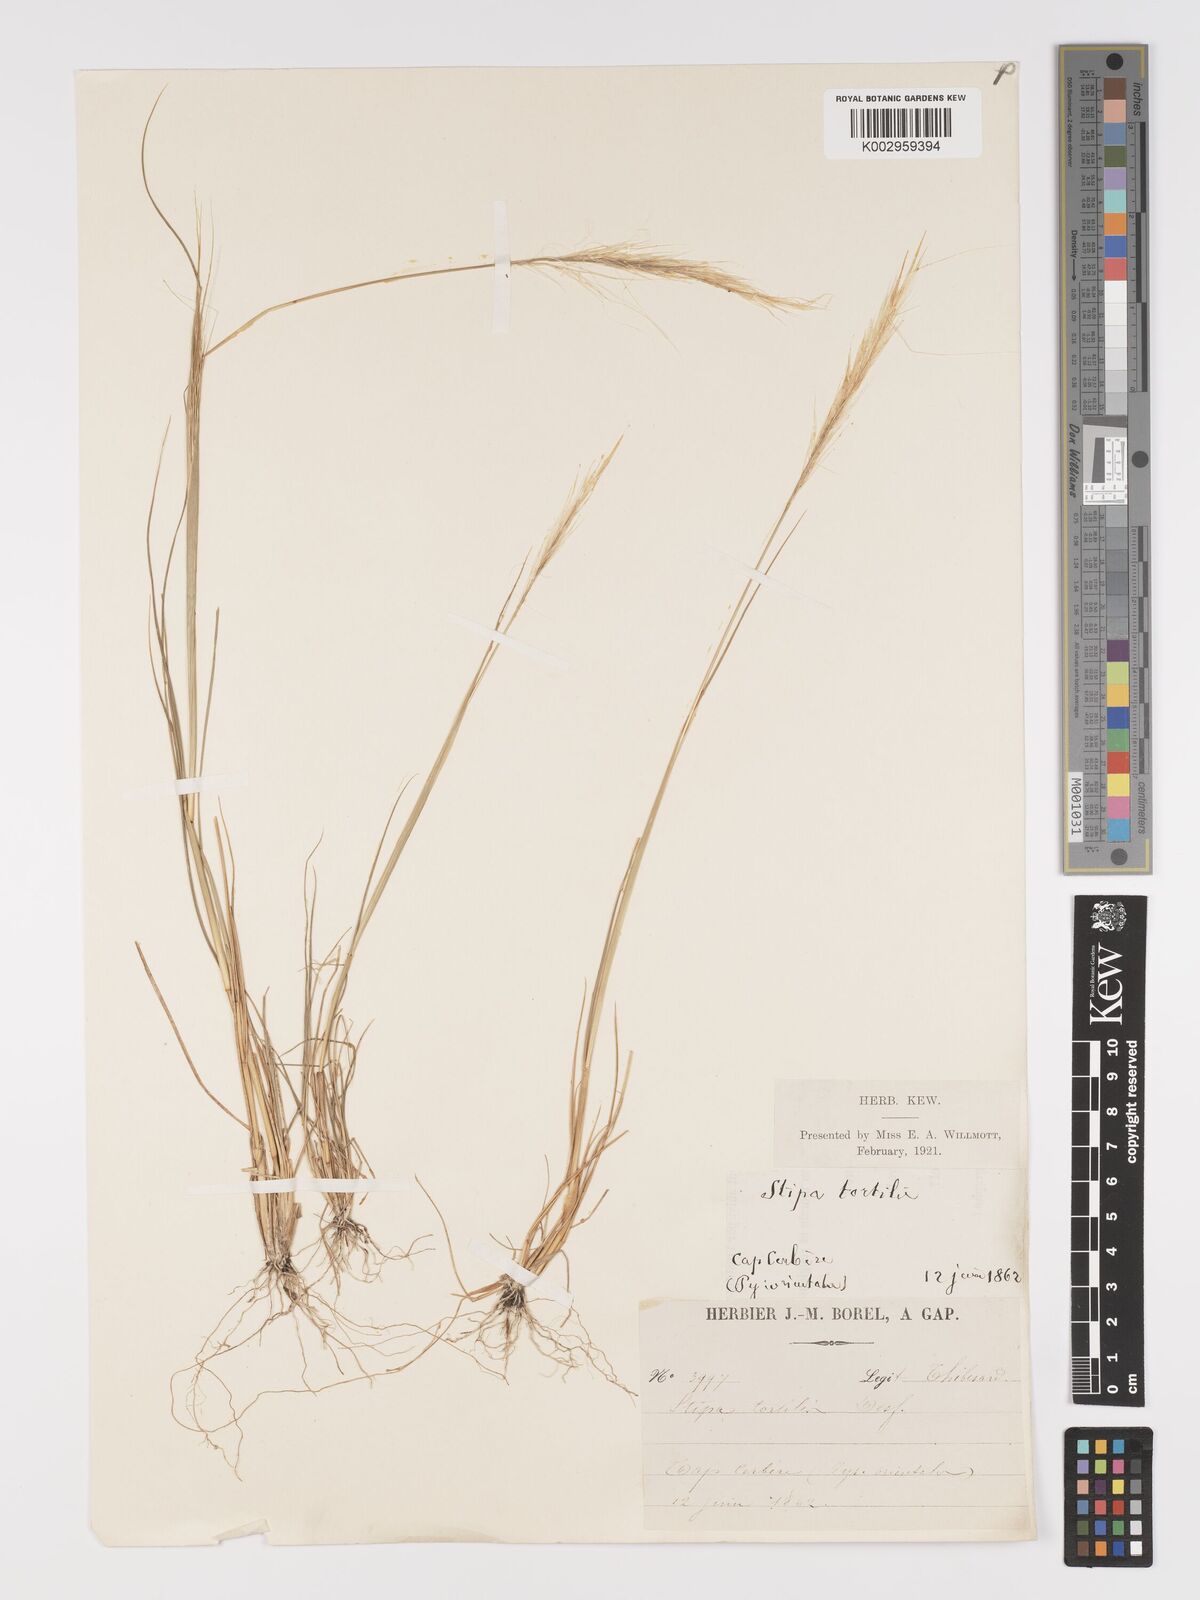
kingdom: Plantae
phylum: Tracheophyta
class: Liliopsida
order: Poales
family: Poaceae
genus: Stipellula
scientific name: Stipellula capensis
